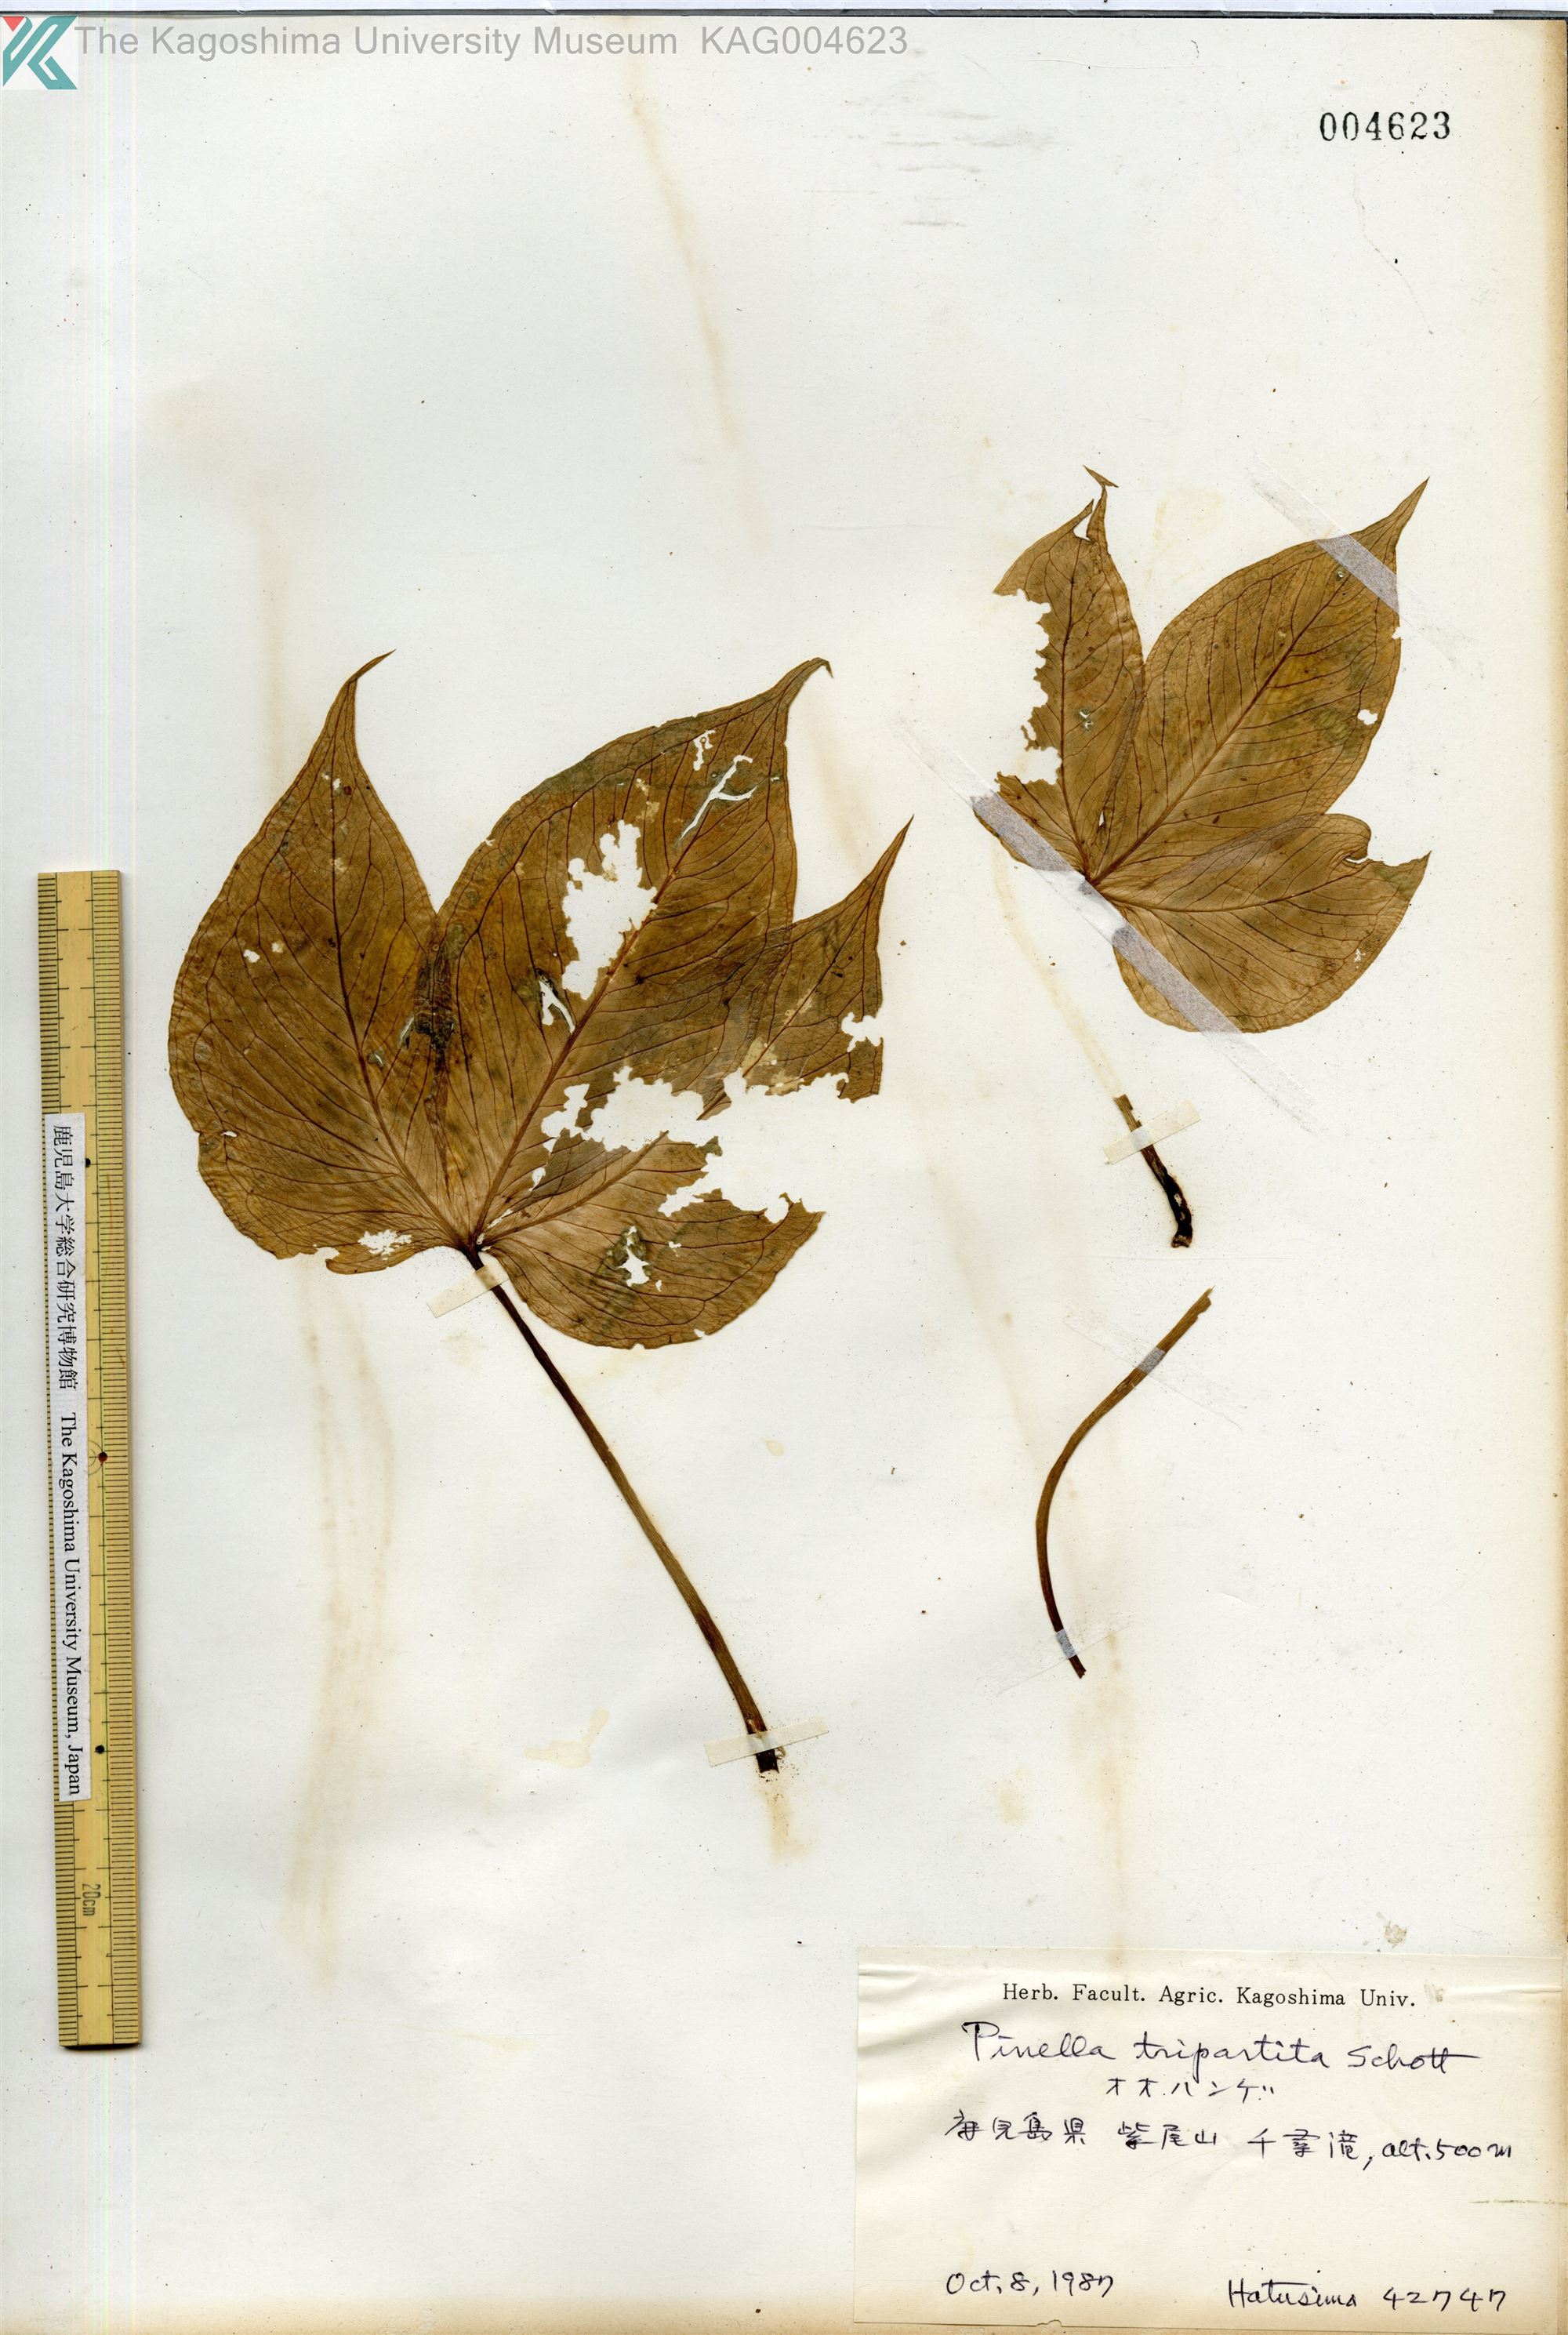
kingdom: Plantae
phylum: Tracheophyta
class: Liliopsida
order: Alismatales
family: Araceae
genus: Pinellia
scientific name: Pinellia tripartita
